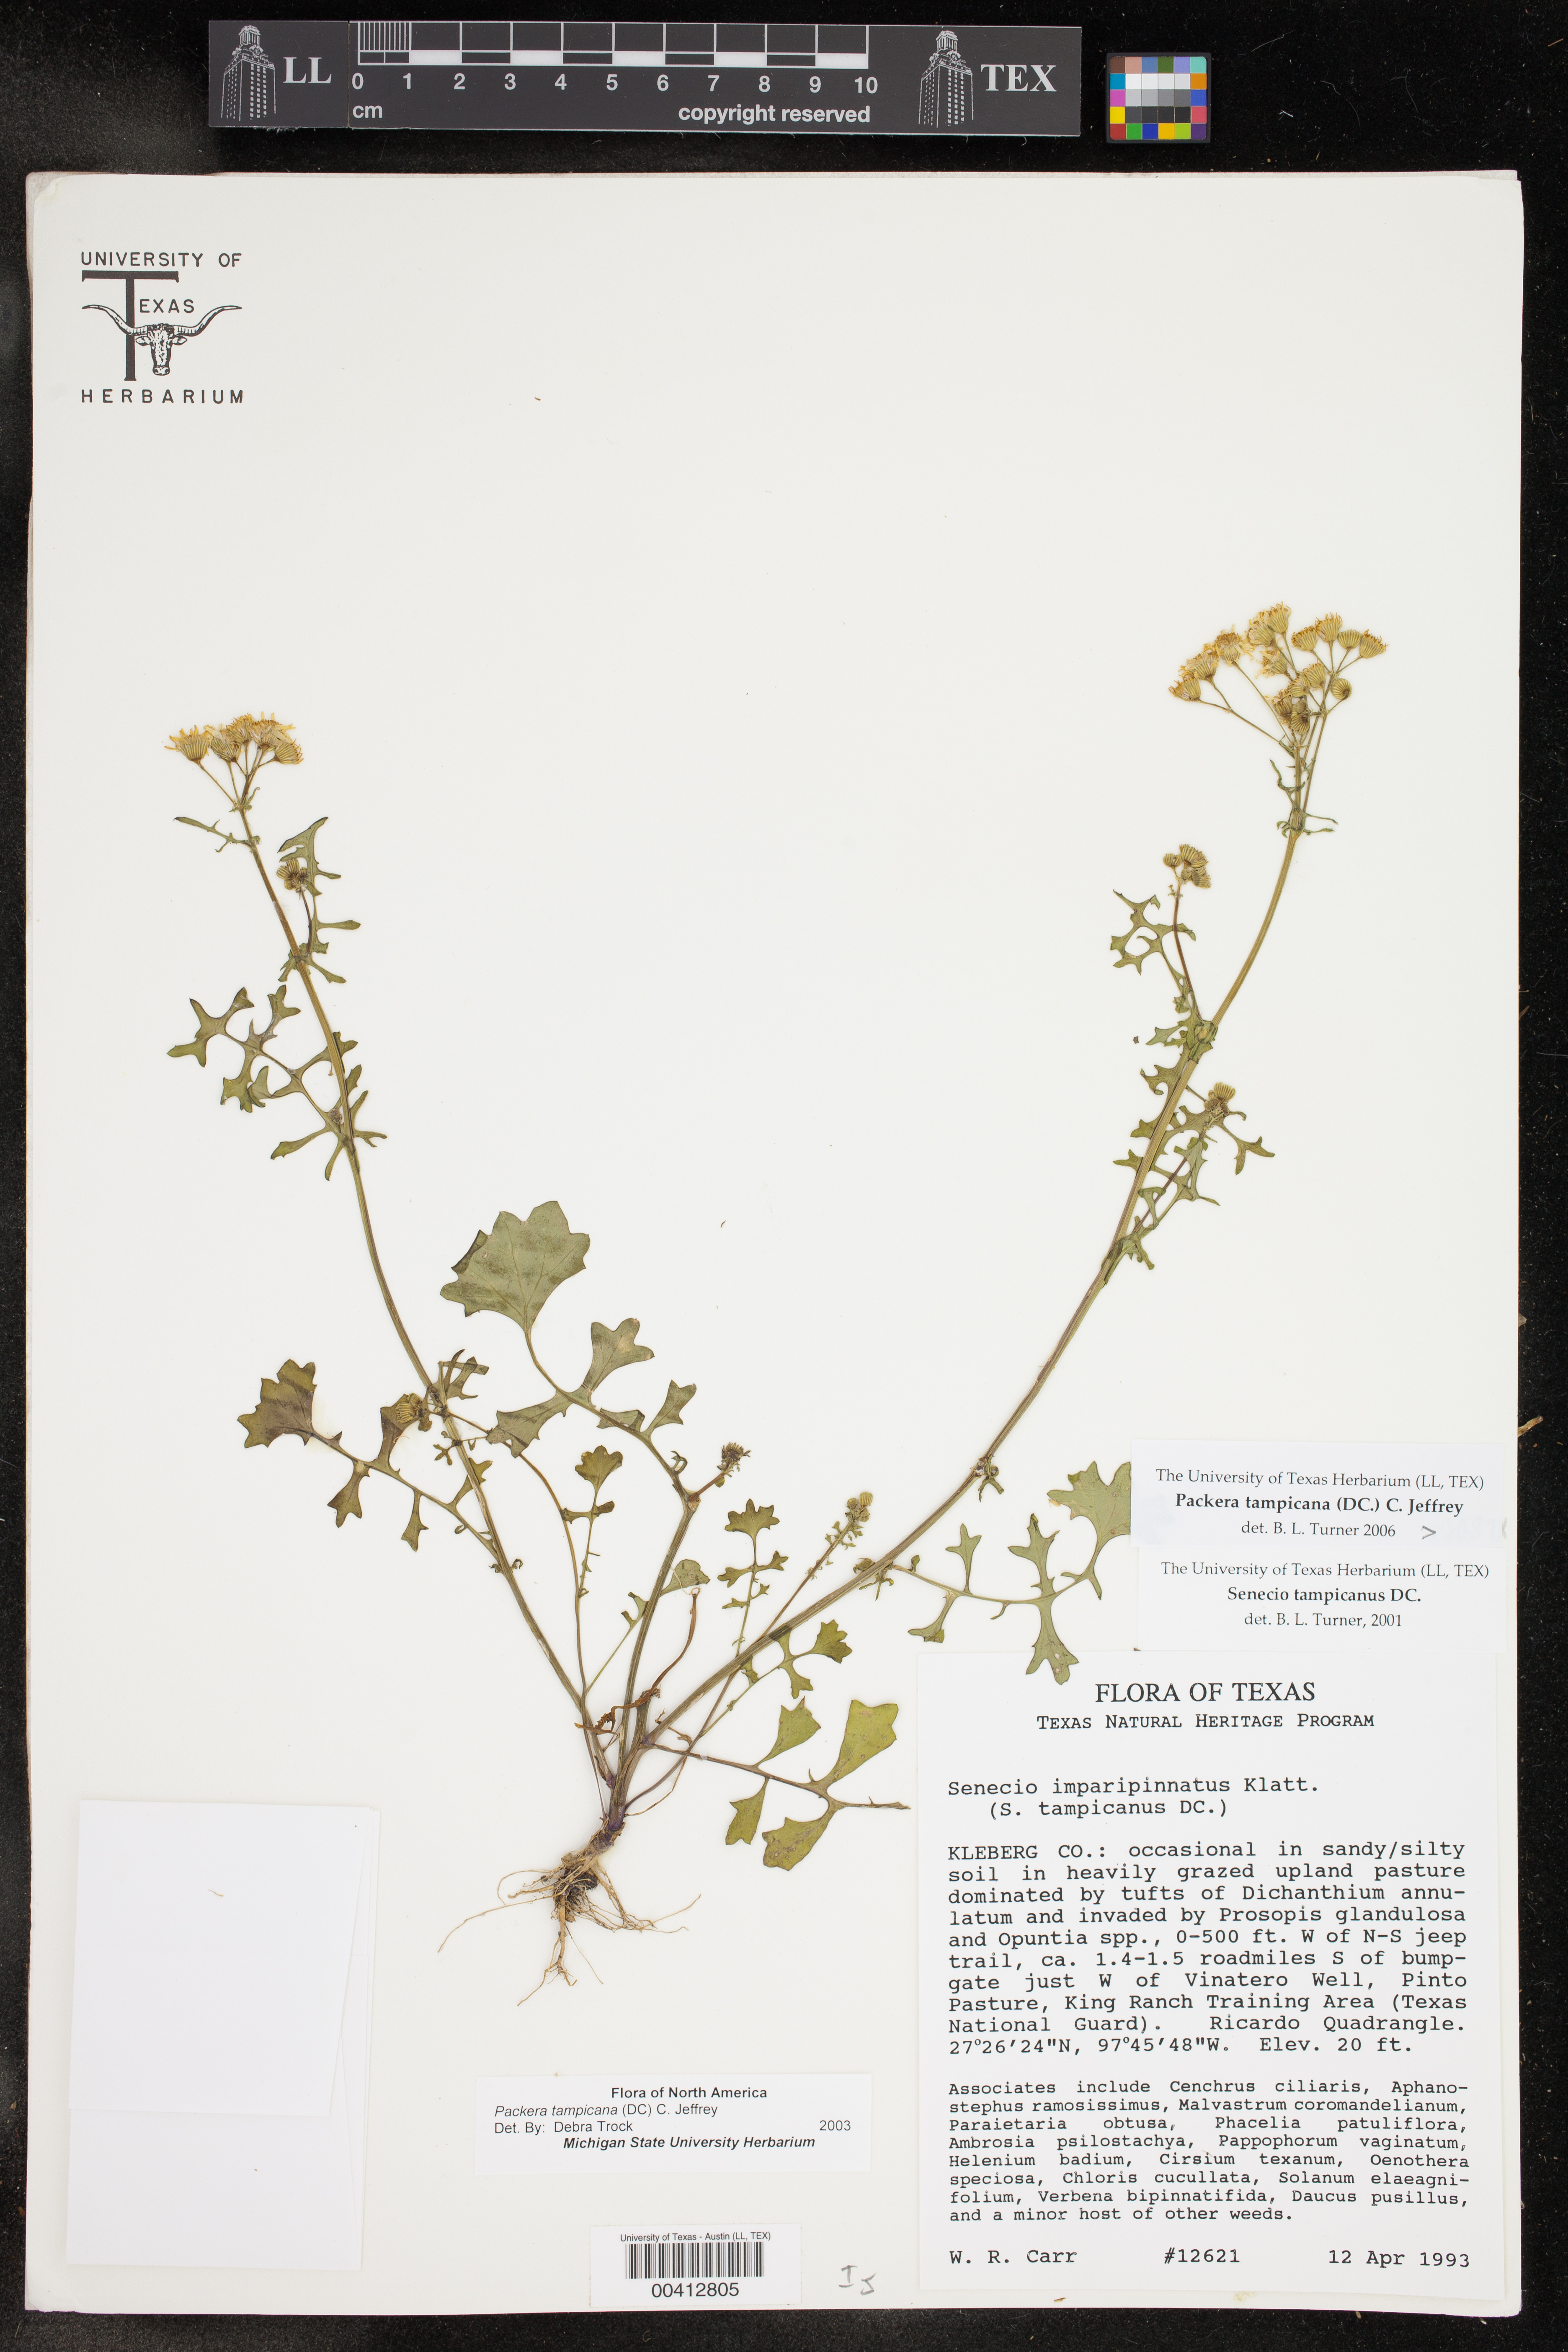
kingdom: Plantae
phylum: Tracheophyta
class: Magnoliopsida
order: Asterales
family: Asteraceae
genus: Packera
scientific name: Packera tampicana
